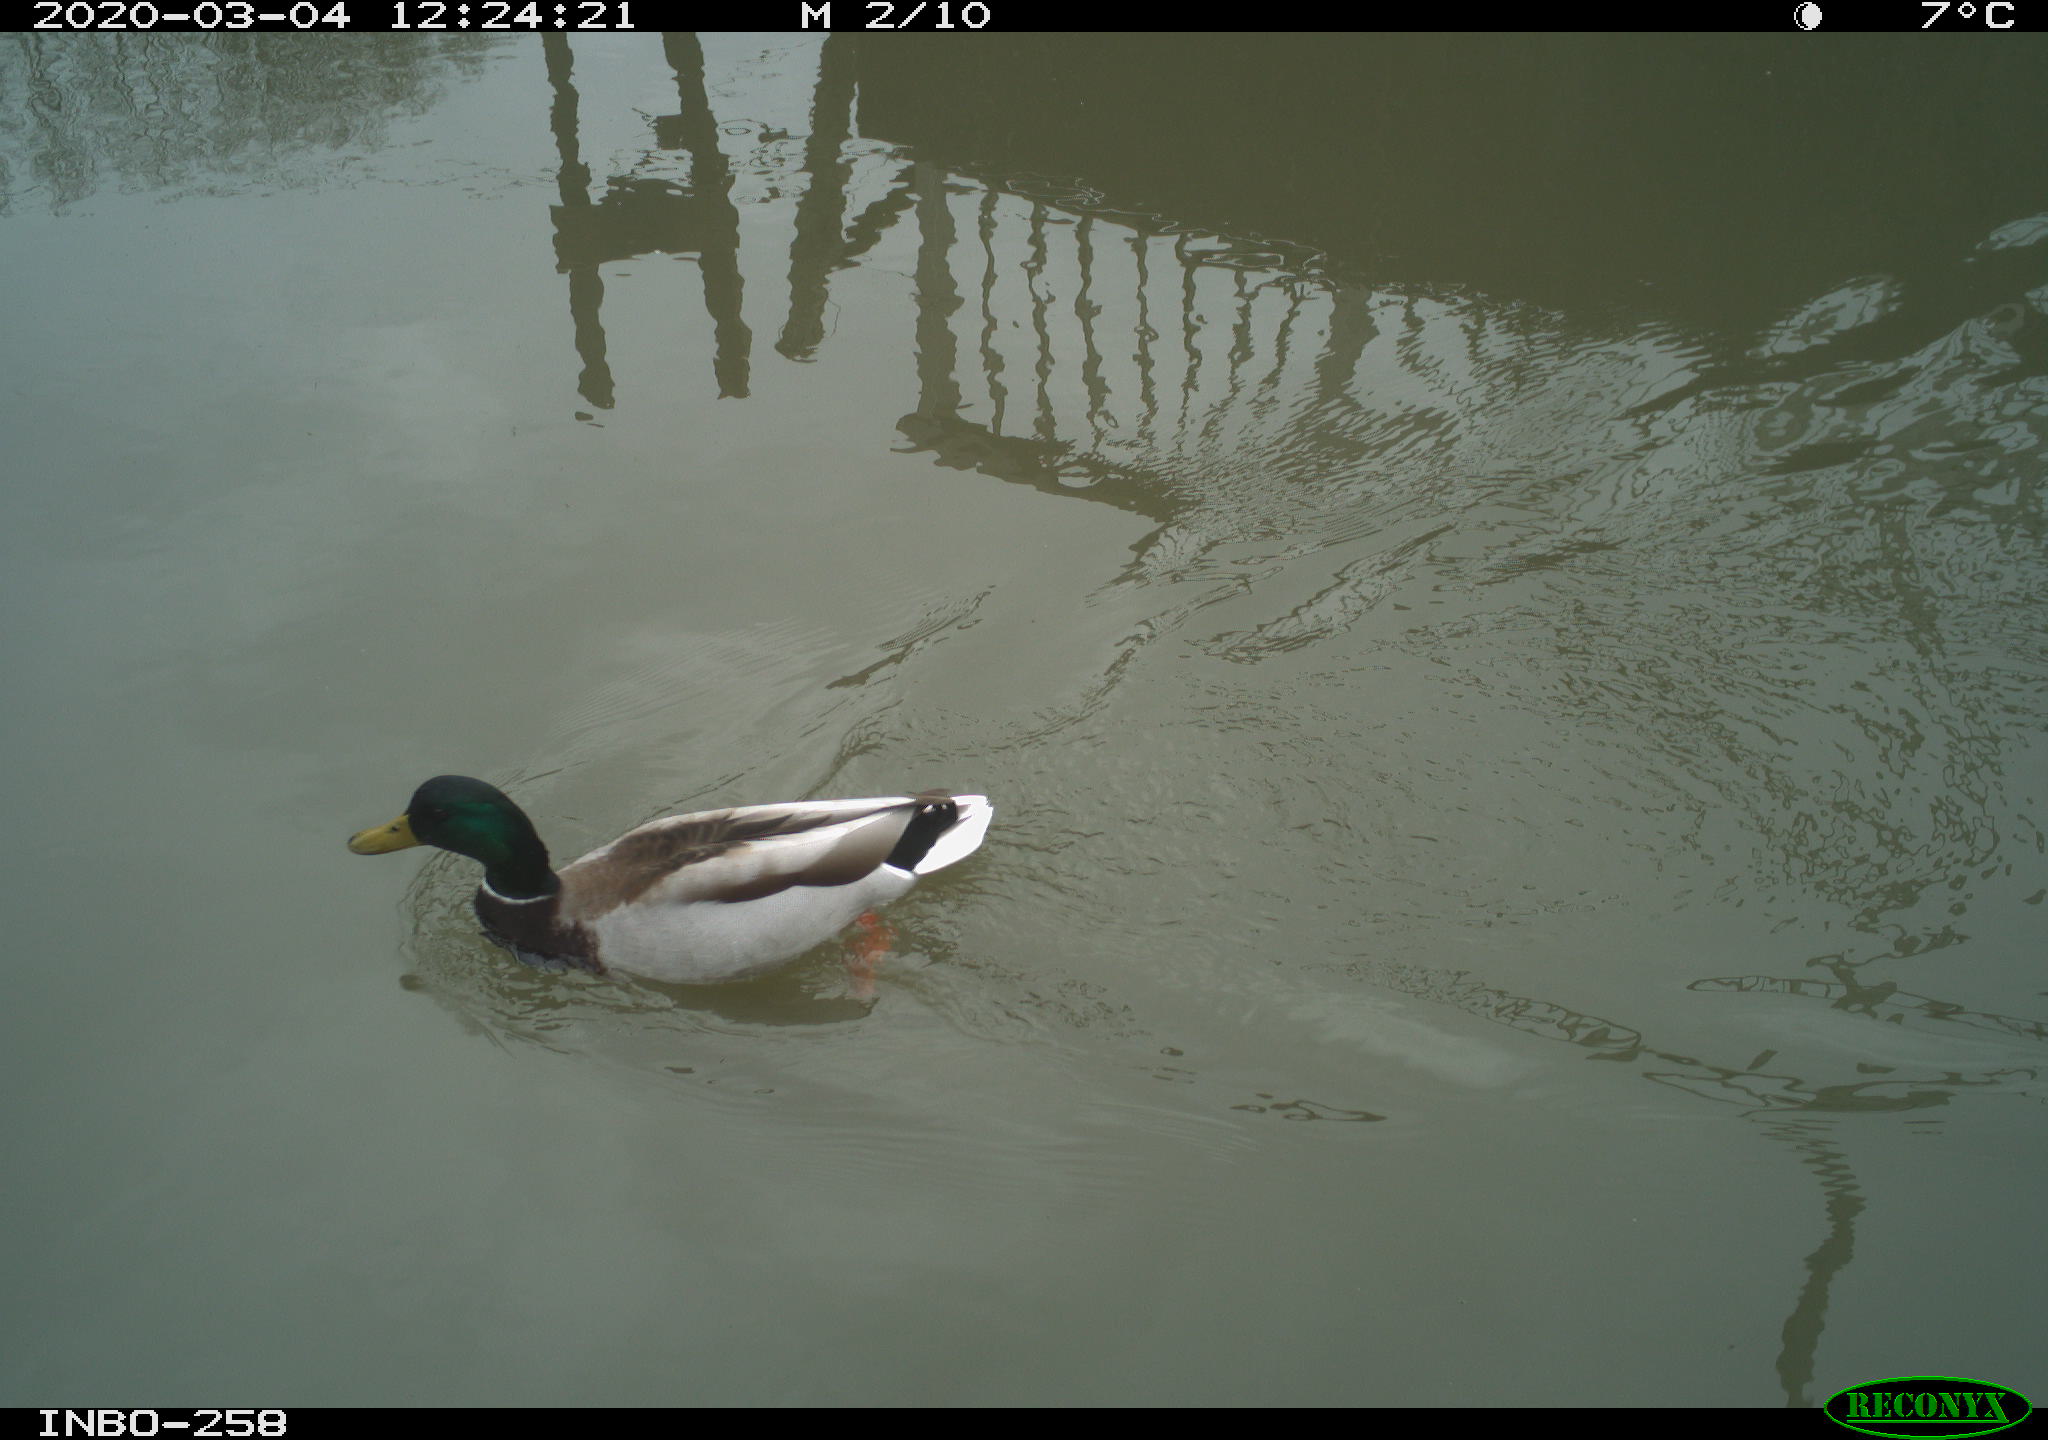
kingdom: Animalia
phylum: Chordata
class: Aves
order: Anseriformes
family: Anatidae
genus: Anas
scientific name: Anas platyrhynchos
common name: Mallard
